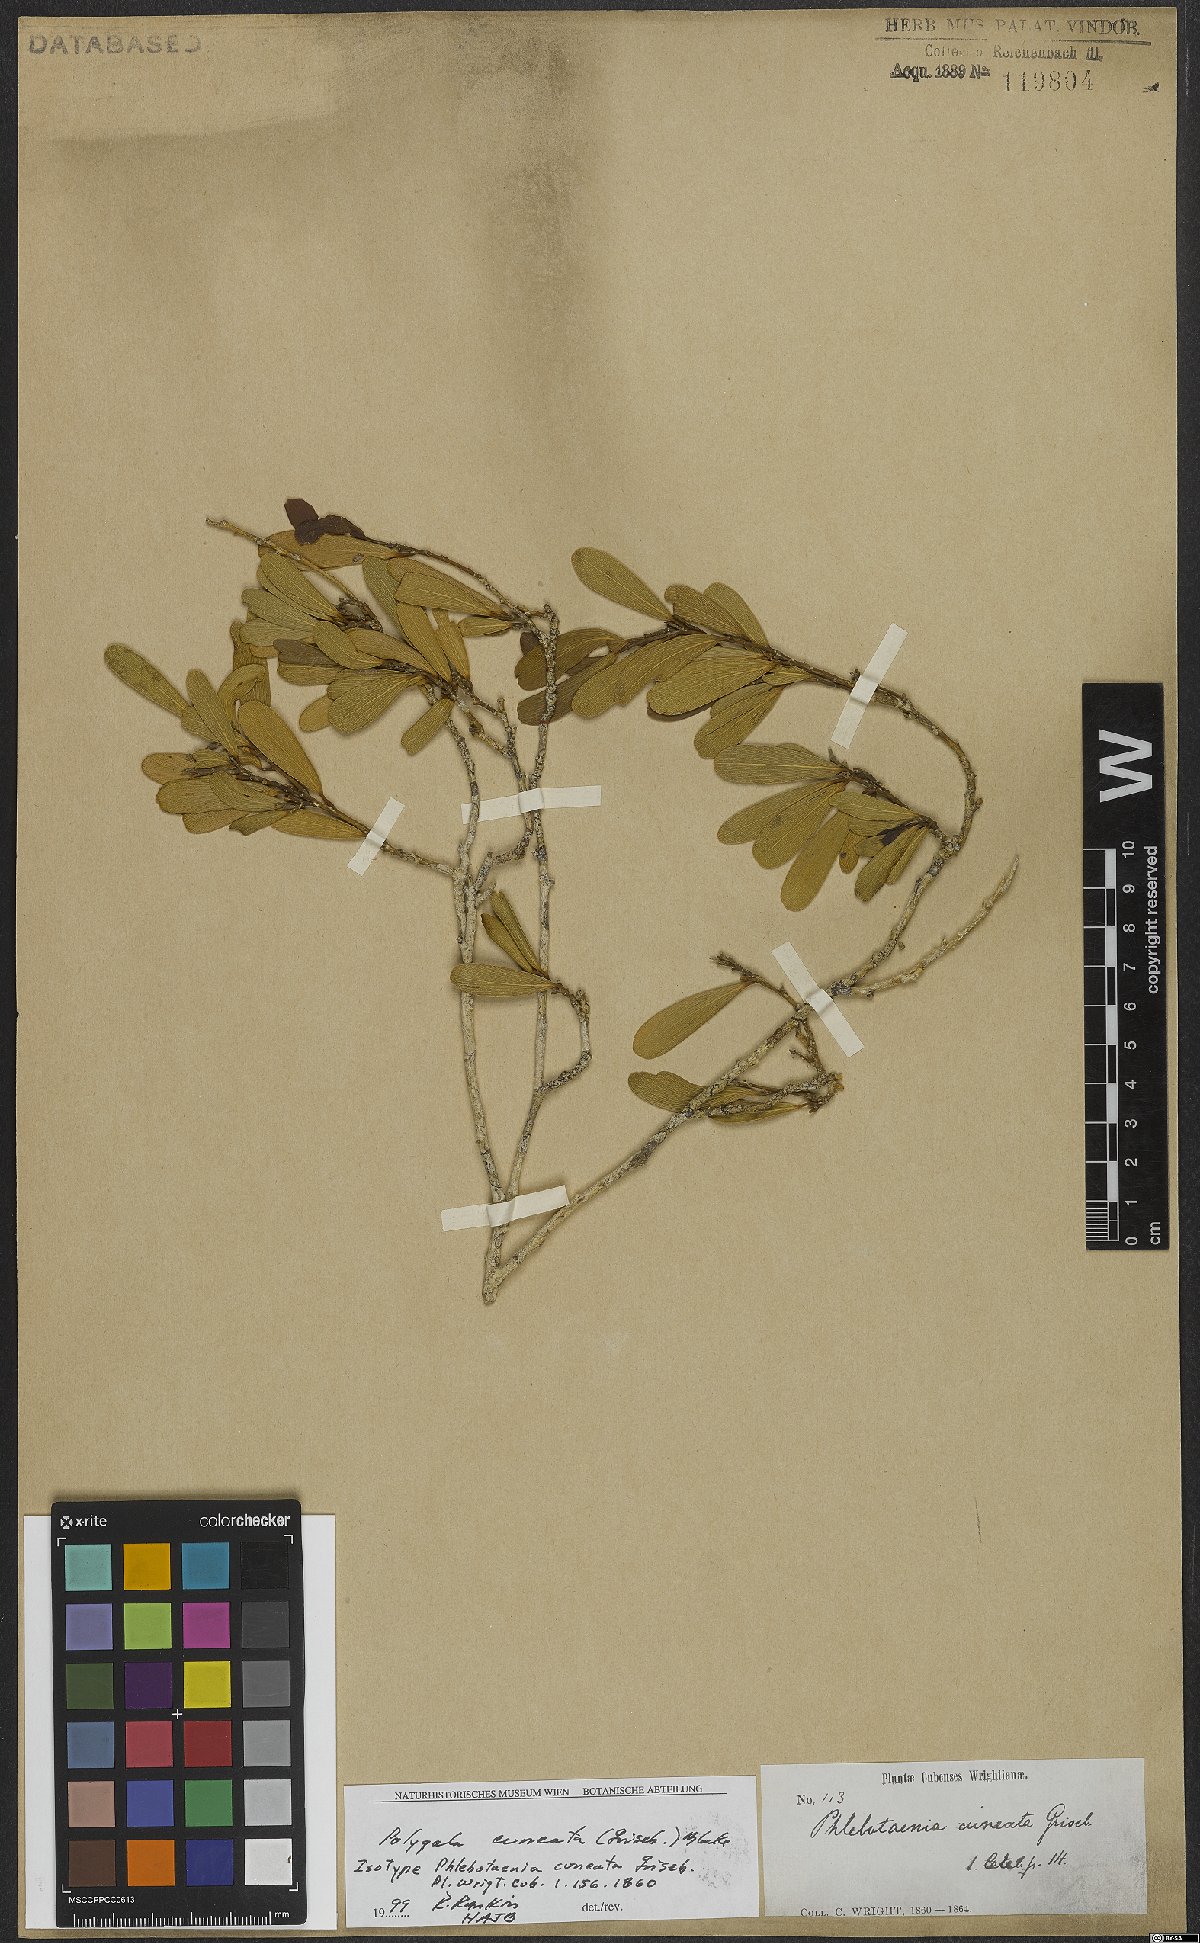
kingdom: Plantae
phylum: Tracheophyta
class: Magnoliopsida
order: Fabales
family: Polygalaceae
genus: Phlebotaenia
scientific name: Phlebotaenia cuneata
